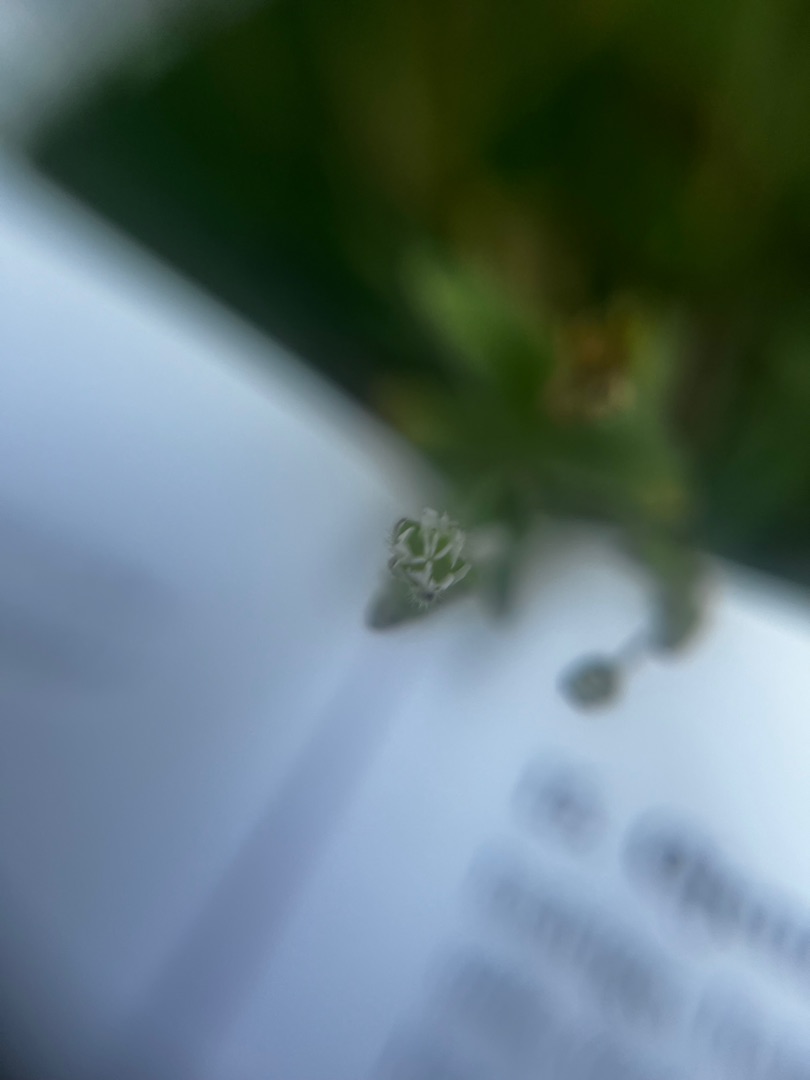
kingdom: Plantae
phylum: Tracheophyta
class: Magnoliopsida
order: Caryophyllales
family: Caryophyllaceae
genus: Cerastium
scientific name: Cerastium fontanum
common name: Almindelig hønsetarm
